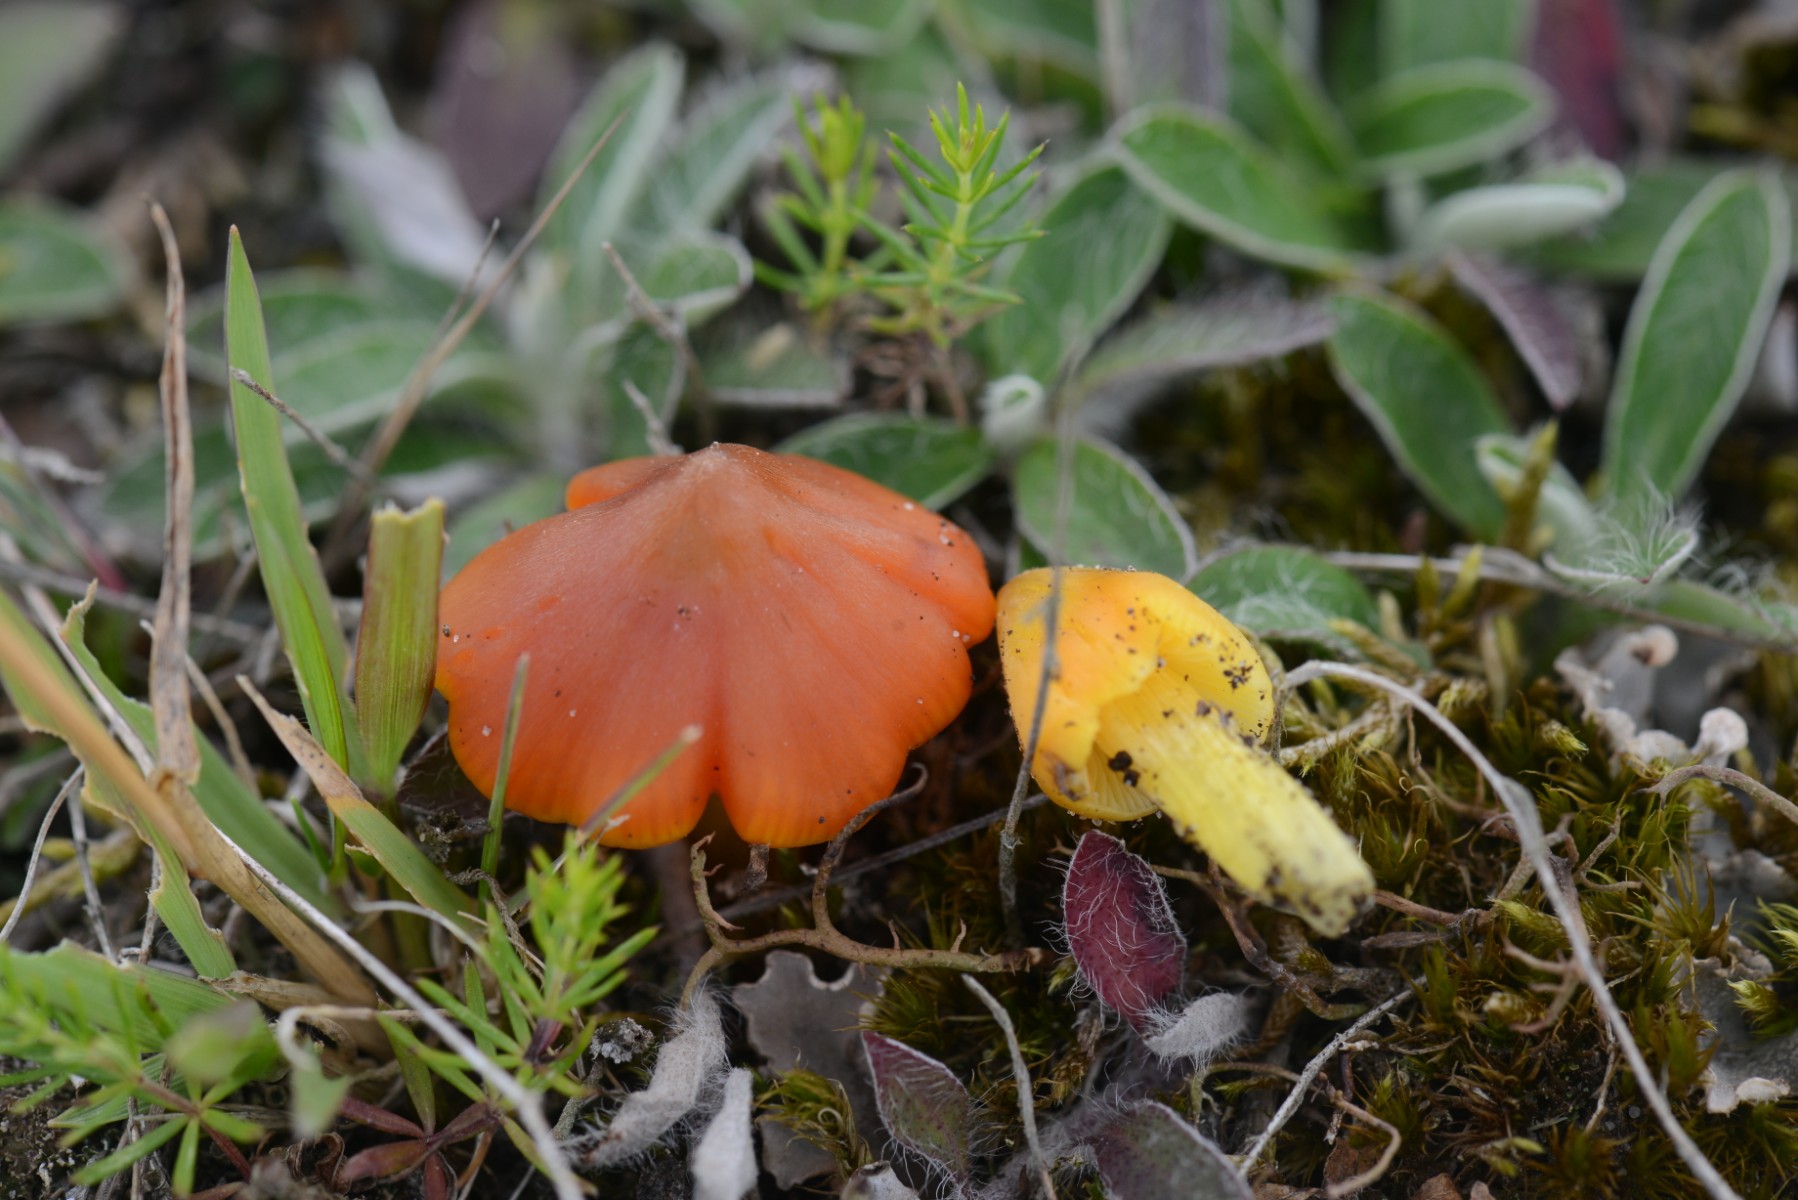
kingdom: Fungi
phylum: Basidiomycota
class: Agaricomycetes
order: Agaricales
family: Hygrophoraceae
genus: Hygrocybe
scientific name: Hygrocybe conicoides
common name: klit-vokshat
